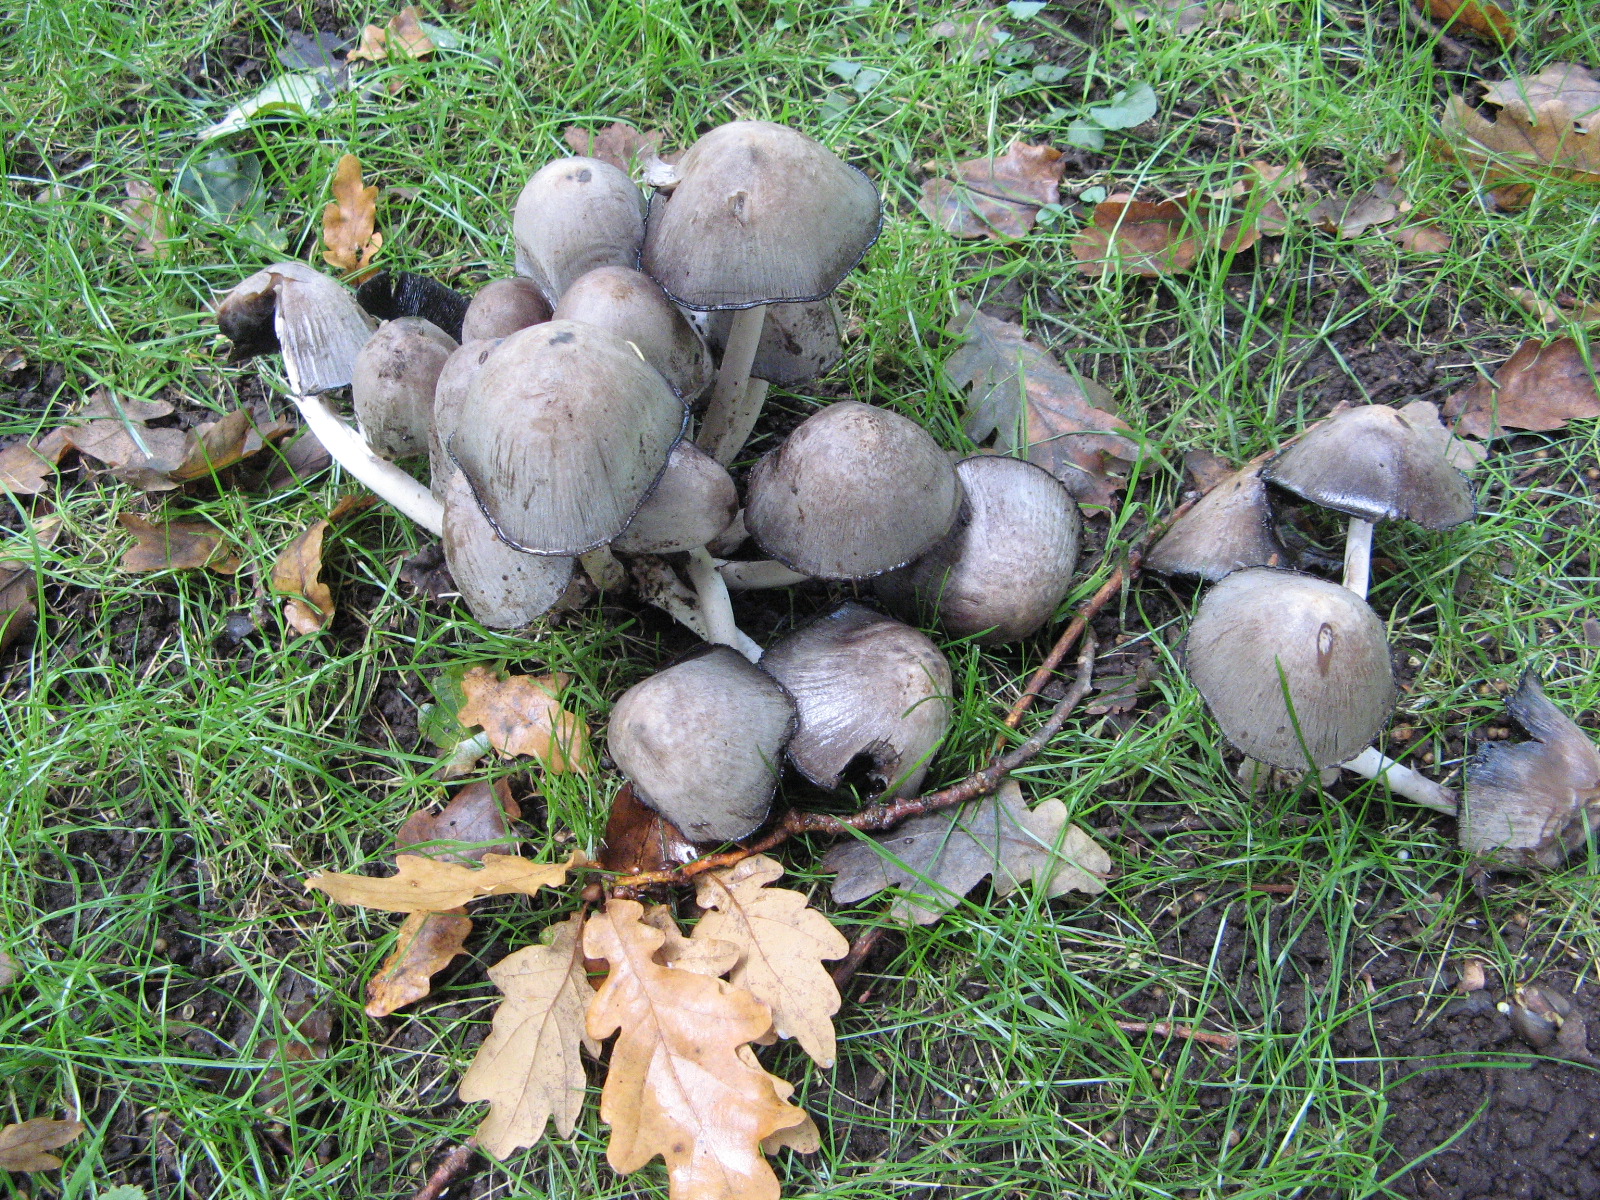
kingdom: Fungi
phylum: Basidiomycota
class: Agaricomycetes
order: Agaricales
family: Psathyrellaceae
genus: Coprinopsis
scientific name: Coprinopsis atramentaria
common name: almindelig blækhat
